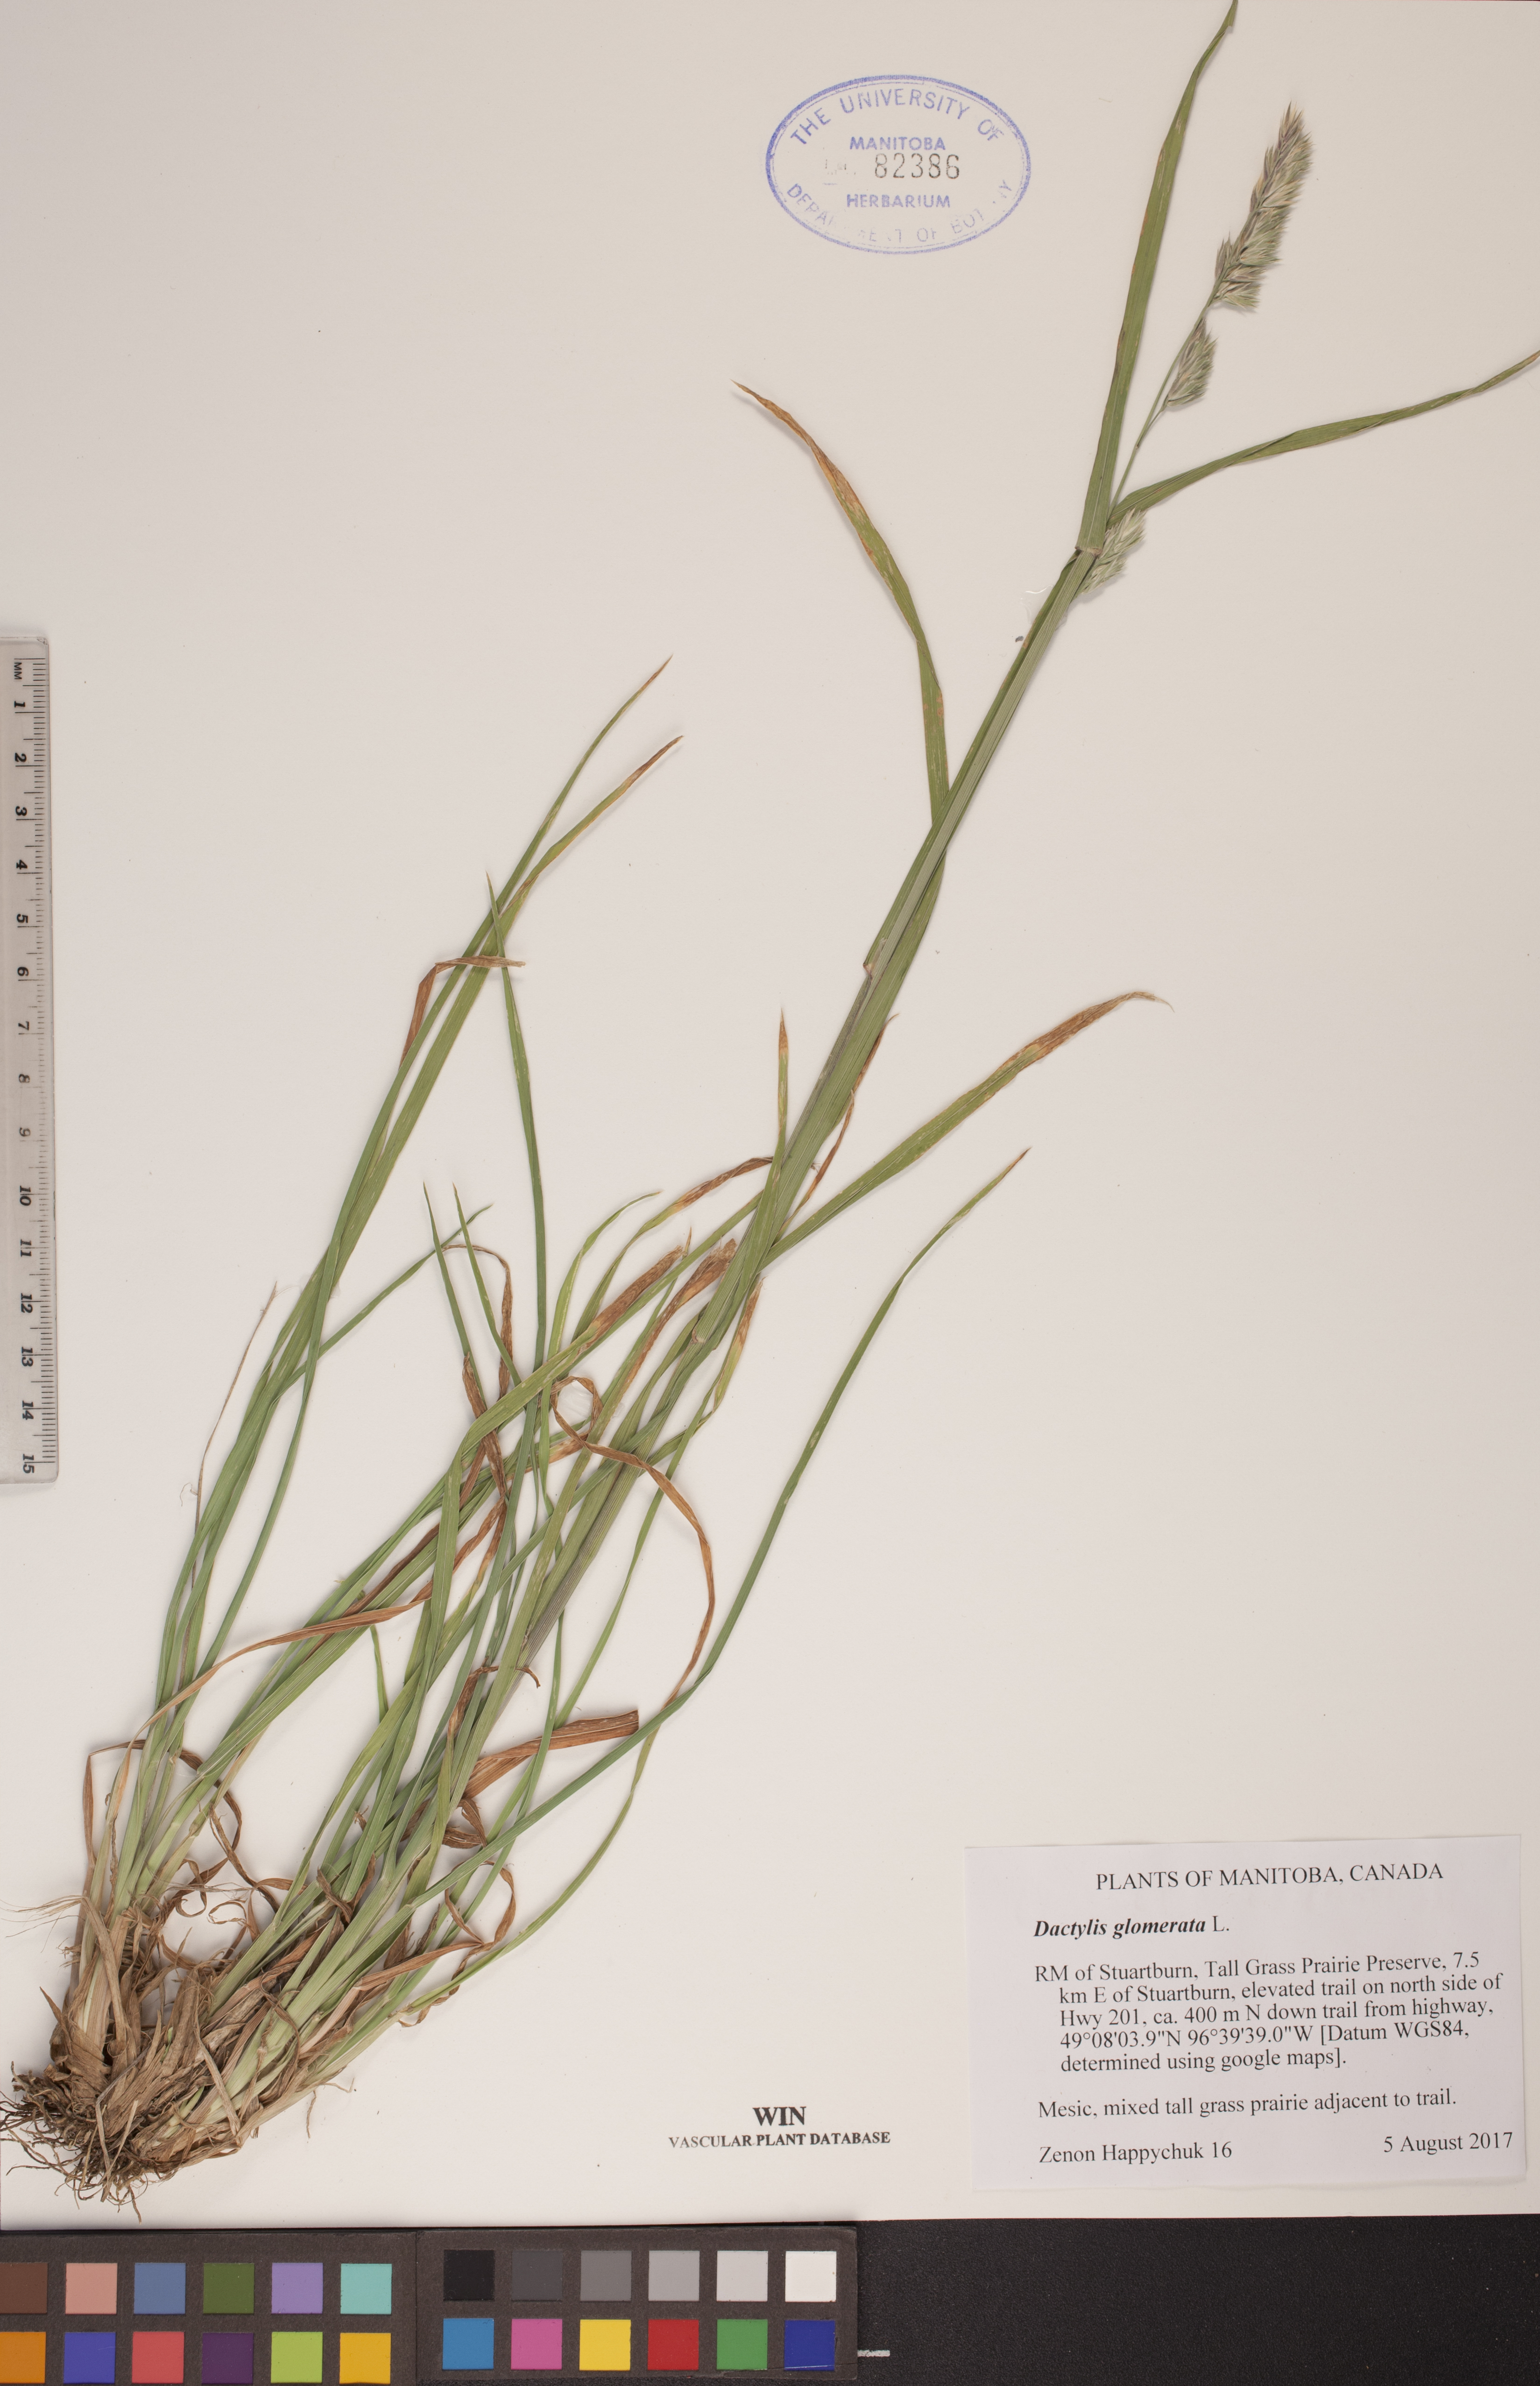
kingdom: Plantae
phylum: Tracheophyta
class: Liliopsida
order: Poales
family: Poaceae
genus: Dactylis
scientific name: Dactylis glomerata
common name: Orchardgrass
